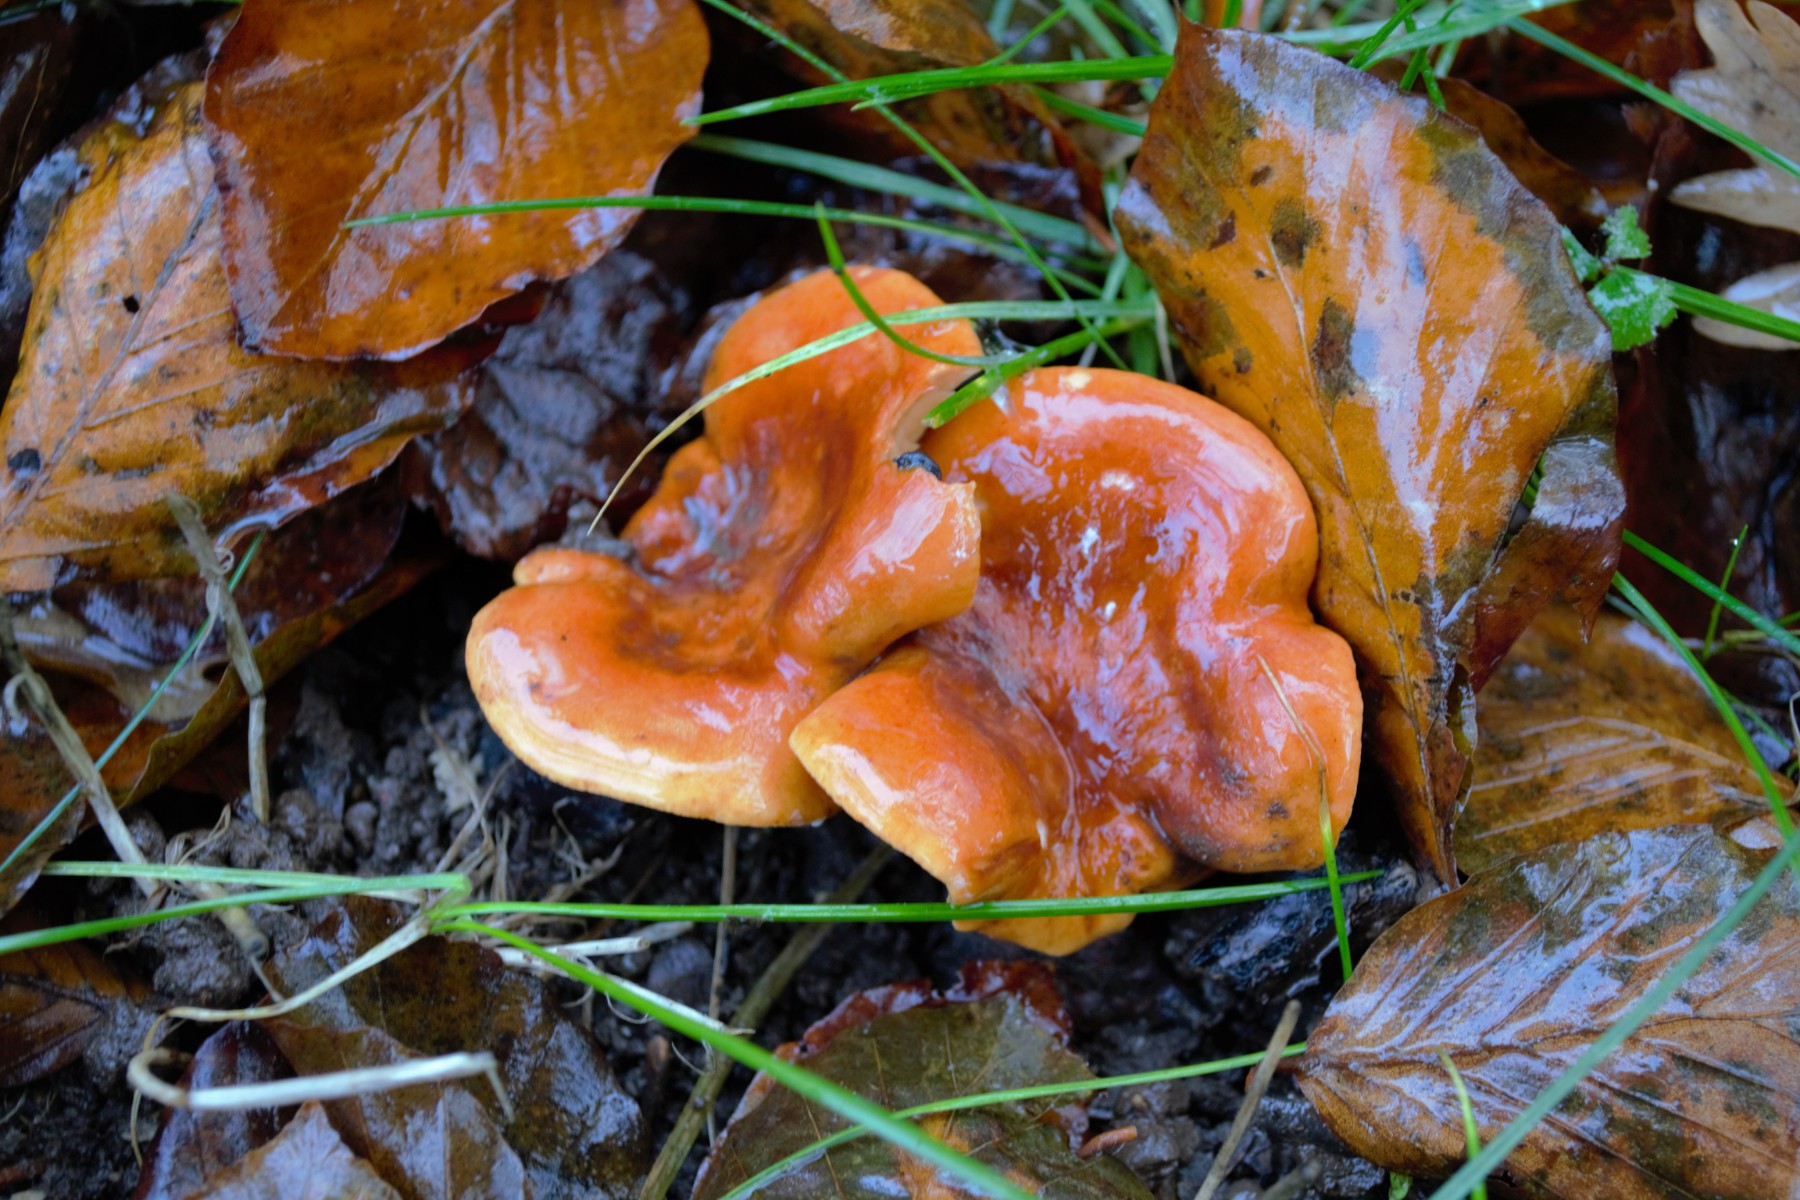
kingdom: Fungi
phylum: Basidiomycota
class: Agaricomycetes
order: Russulales
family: Russulaceae
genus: Lactarius
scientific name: Lactarius fulvissimus
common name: ræve-mælkehat
